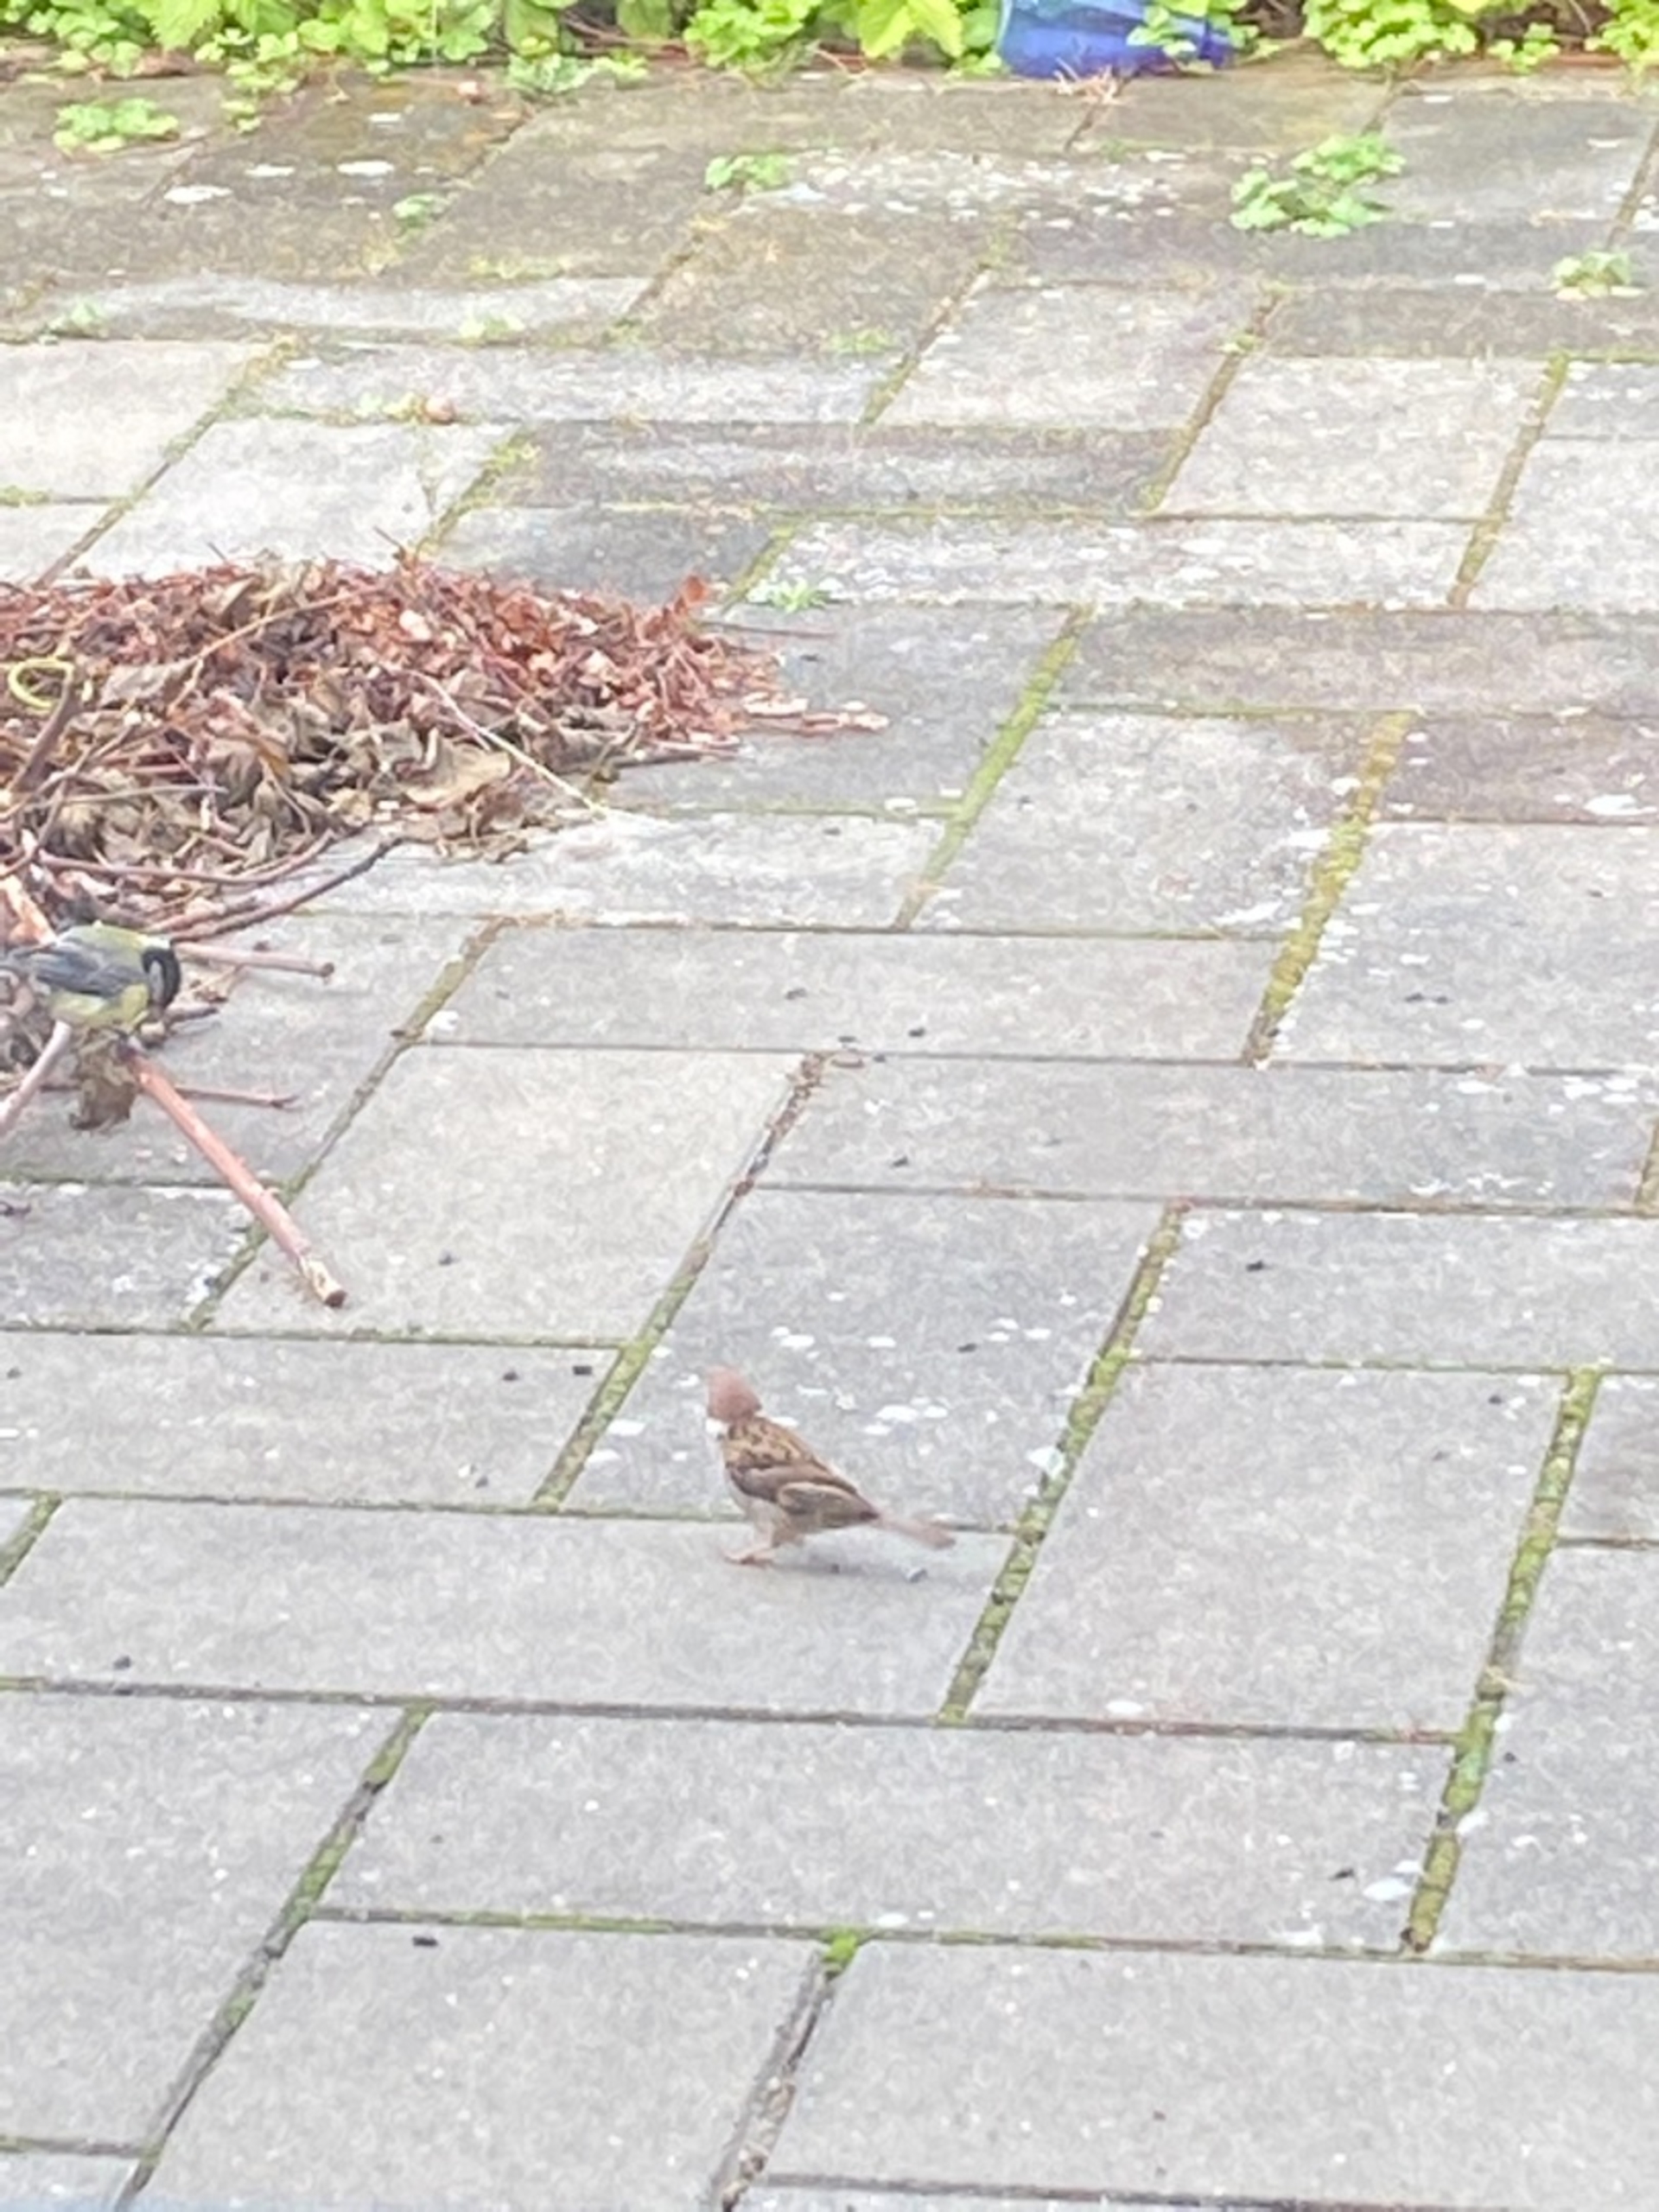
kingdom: Animalia
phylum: Chordata
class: Aves
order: Passeriformes
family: Passeridae
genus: Passer
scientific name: Passer montanus
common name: Skovspurv
